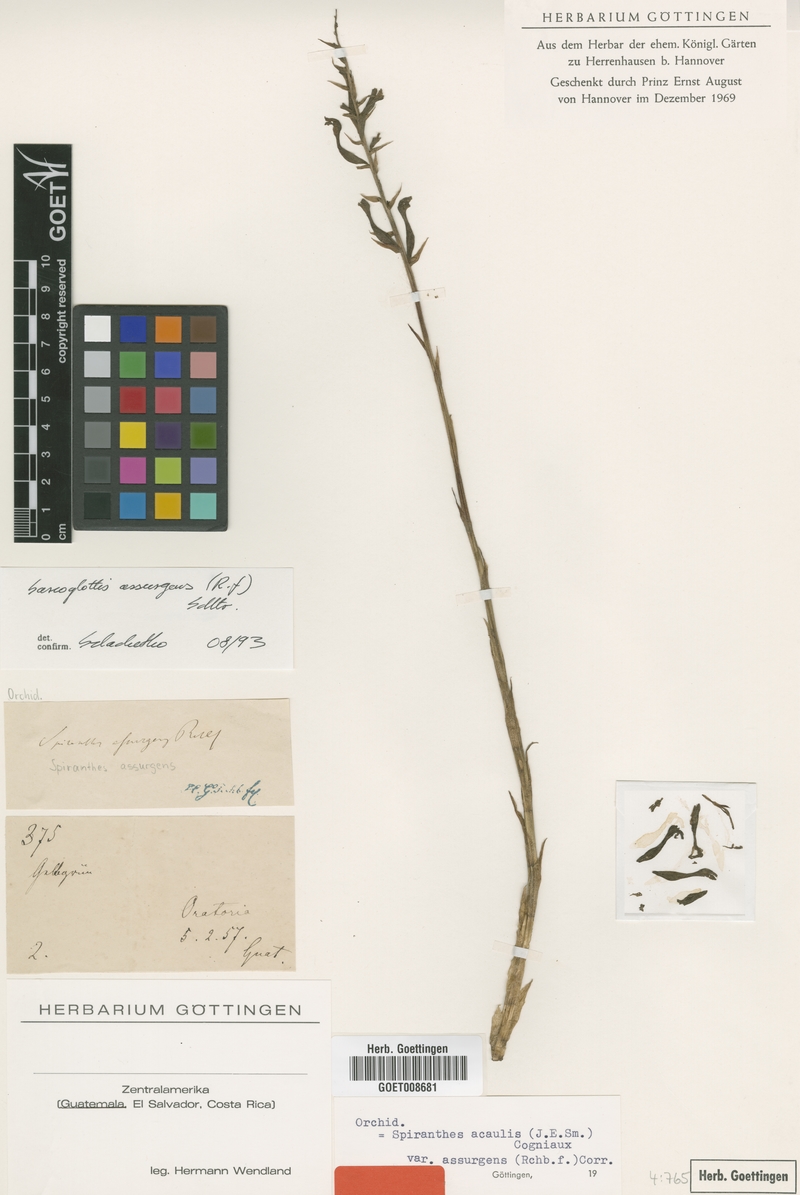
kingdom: Plantae
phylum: Tracheophyta
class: Liliopsida
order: Asparagales
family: Orchidaceae
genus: Sarcoglottis
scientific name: Sarcoglottis assurgens
